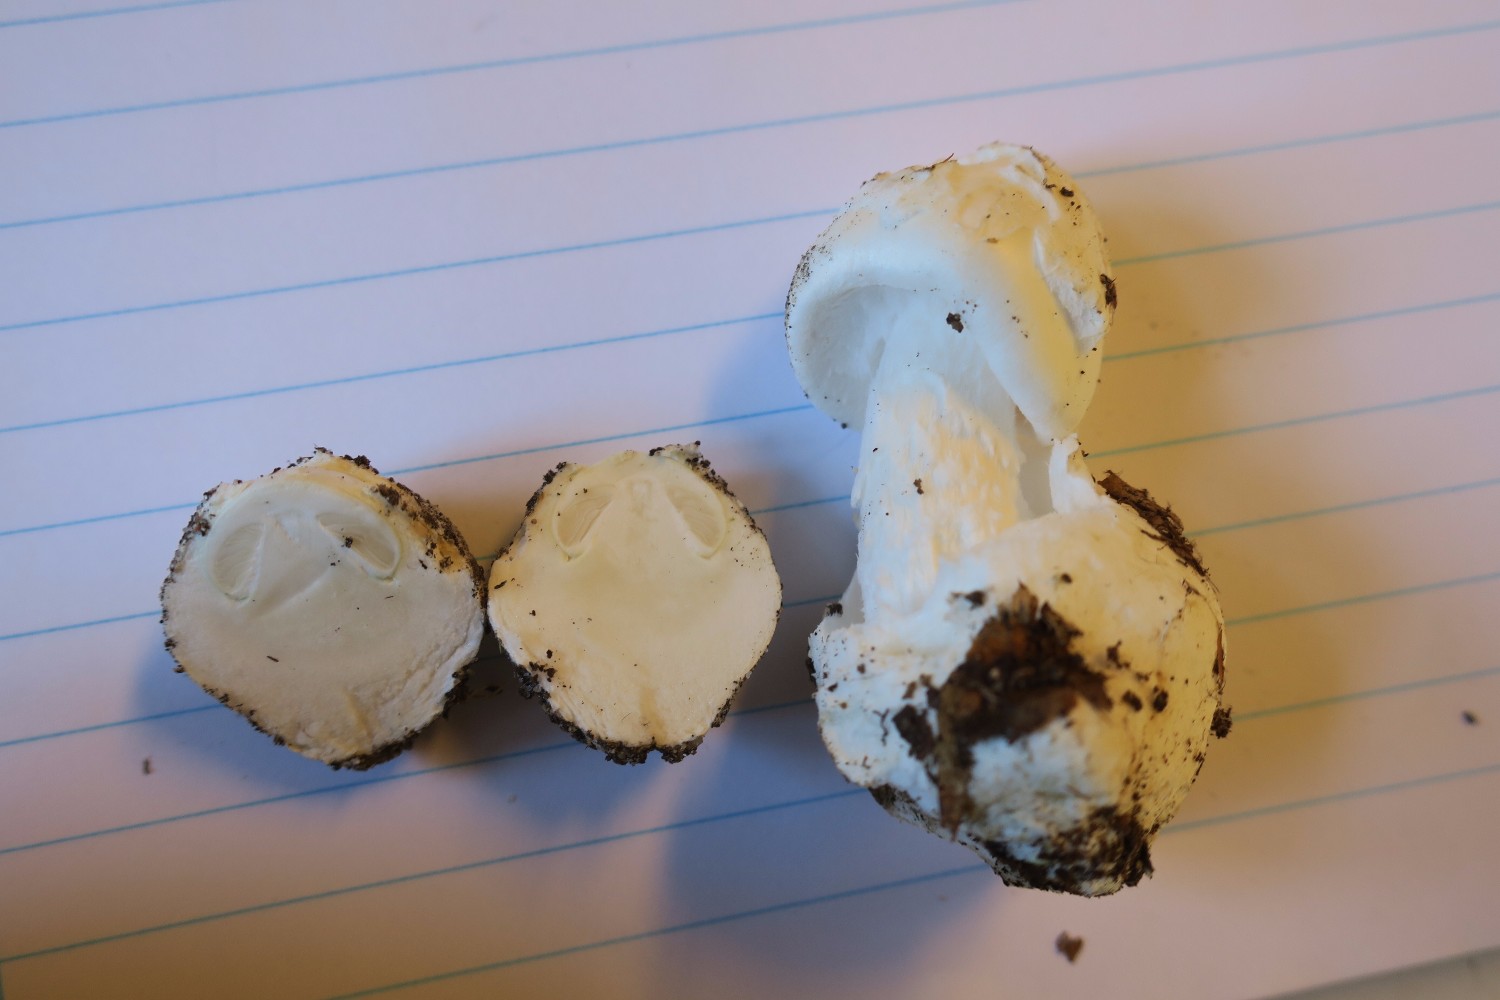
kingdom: Fungi
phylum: Basidiomycota
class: Agaricomycetes
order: Agaricales
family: Amanitaceae
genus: Amanita
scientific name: Amanita virosa
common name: snehvid fluesvamp
